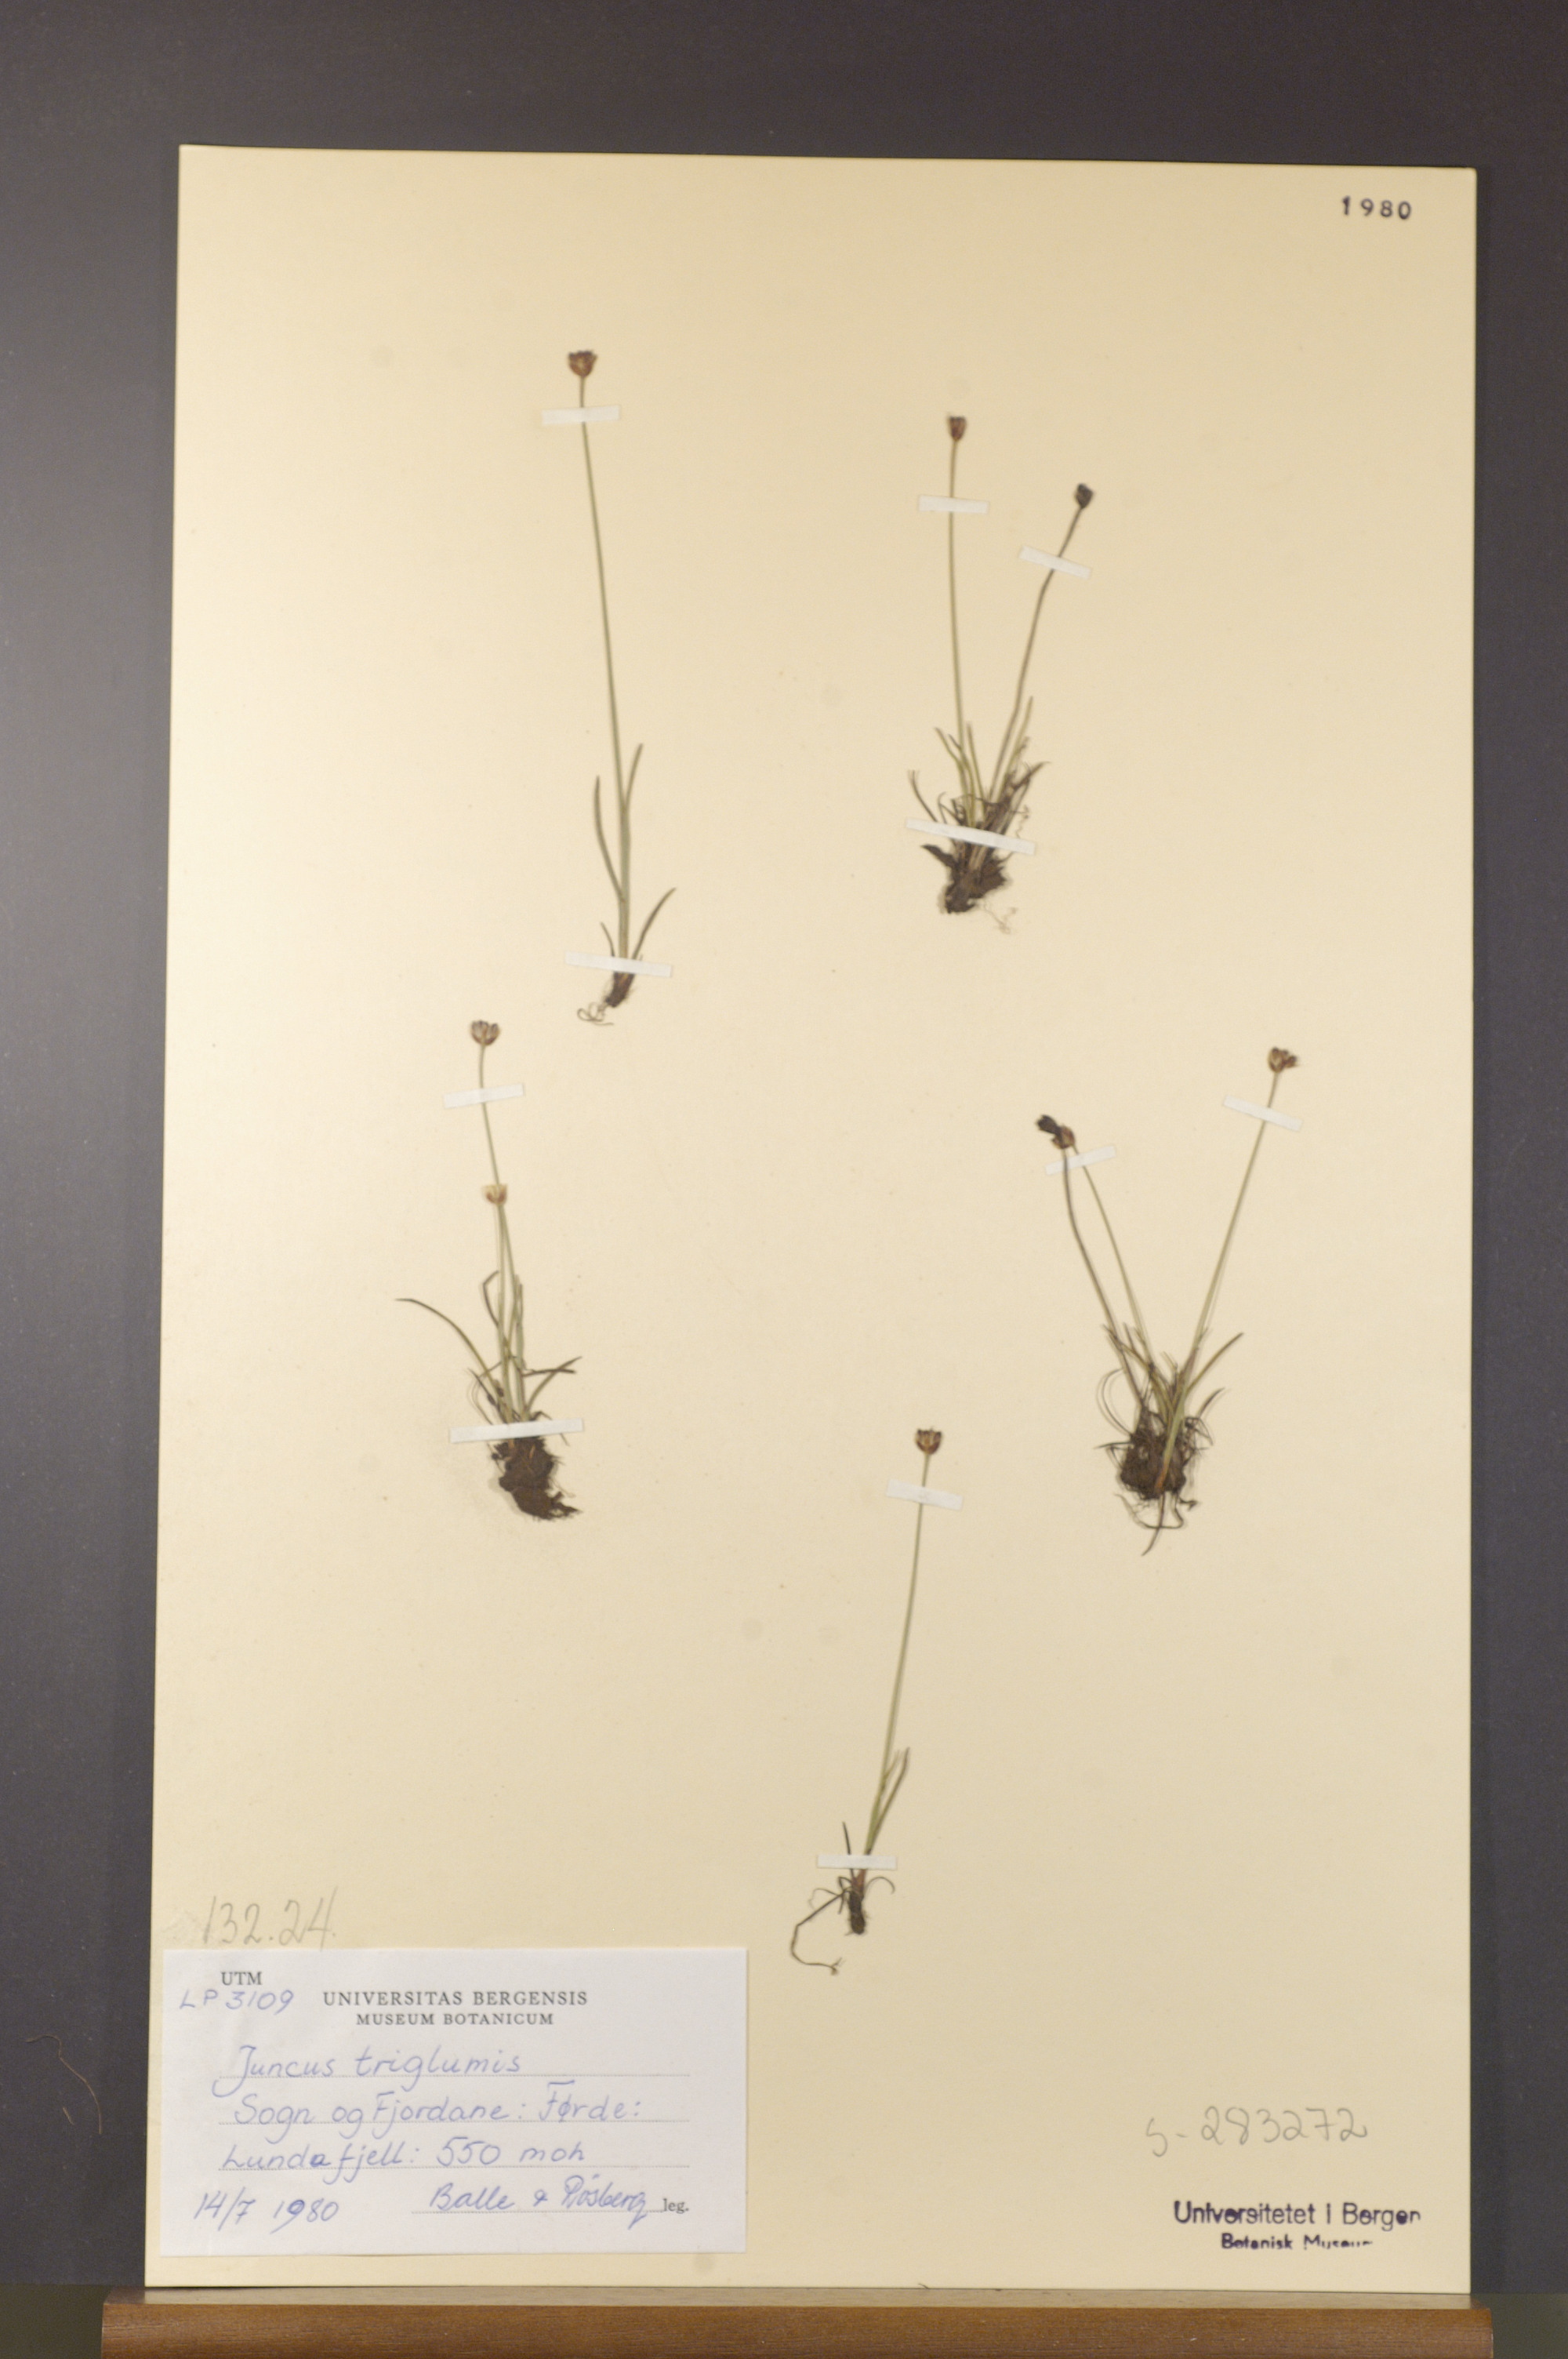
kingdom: Plantae
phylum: Tracheophyta
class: Liliopsida
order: Poales
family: Juncaceae
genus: Juncus
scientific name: Juncus triglumis
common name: Three-flowered rush
